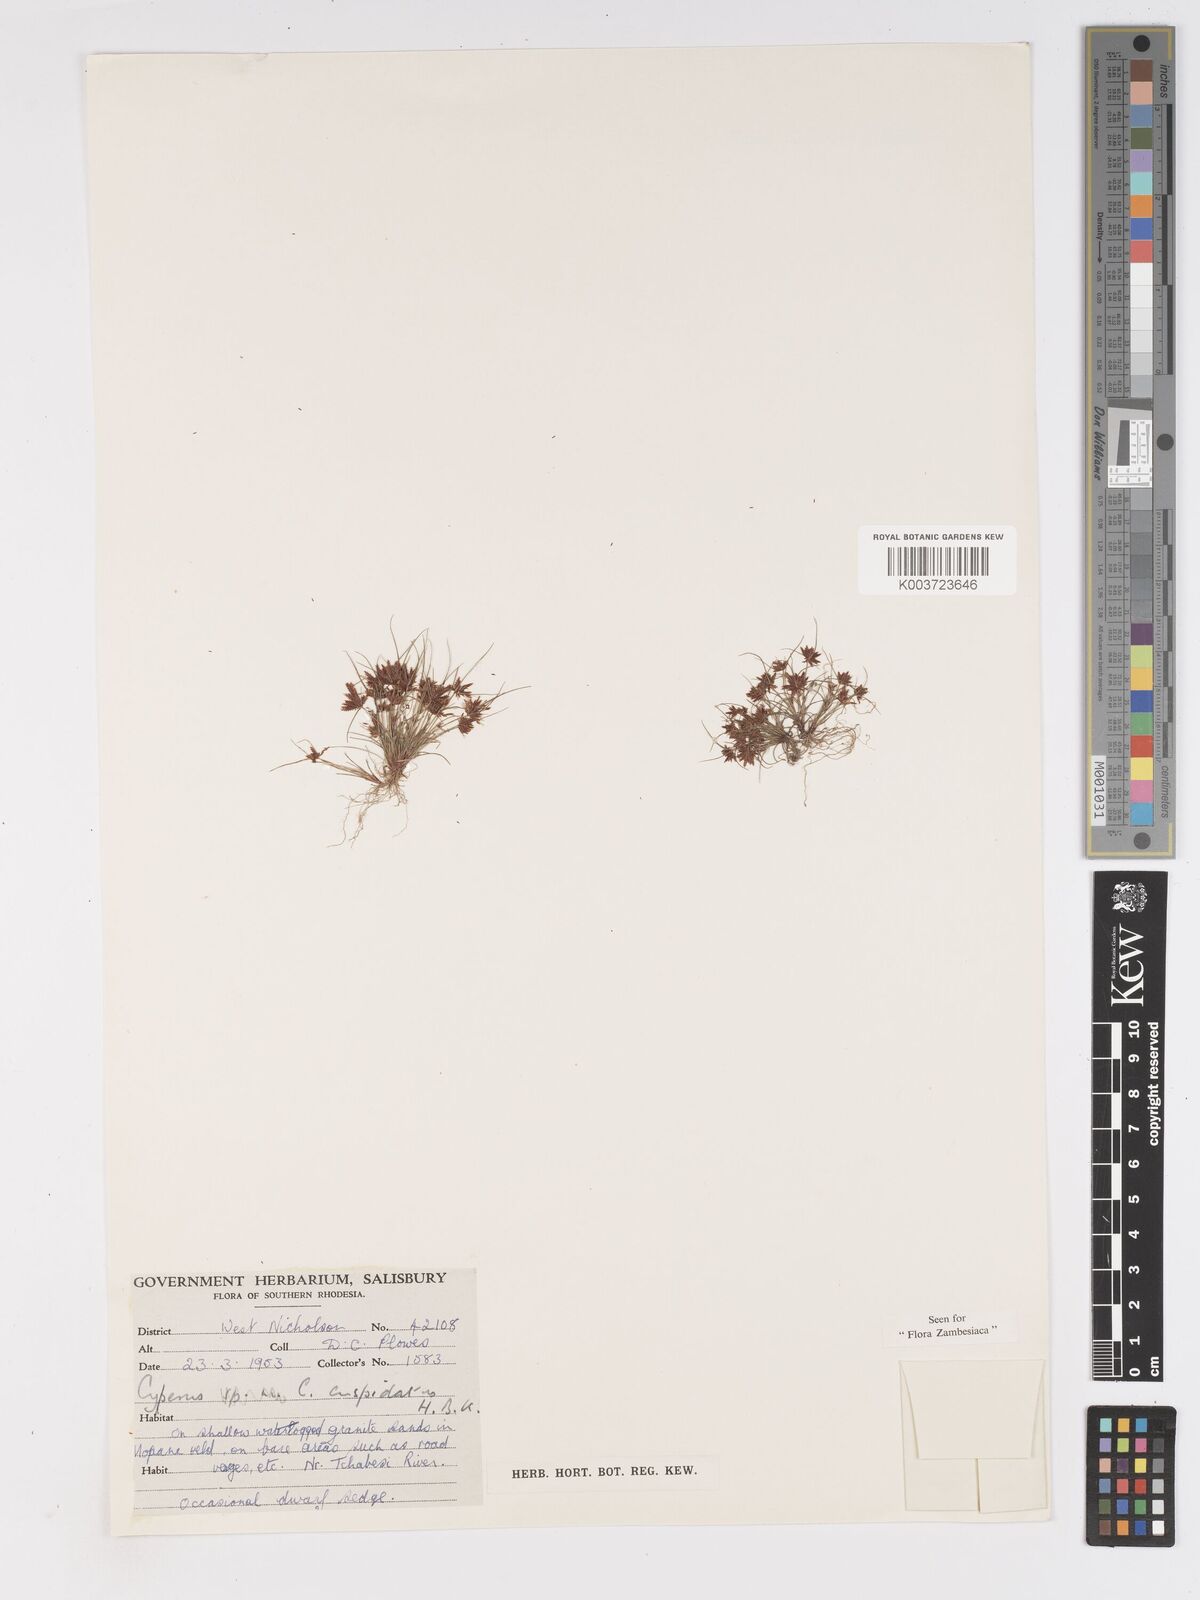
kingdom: Plantae
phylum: Tracheophyta
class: Liliopsida
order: Poales
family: Cyperaceae
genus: Cyperus
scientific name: Cyperus betafensis
